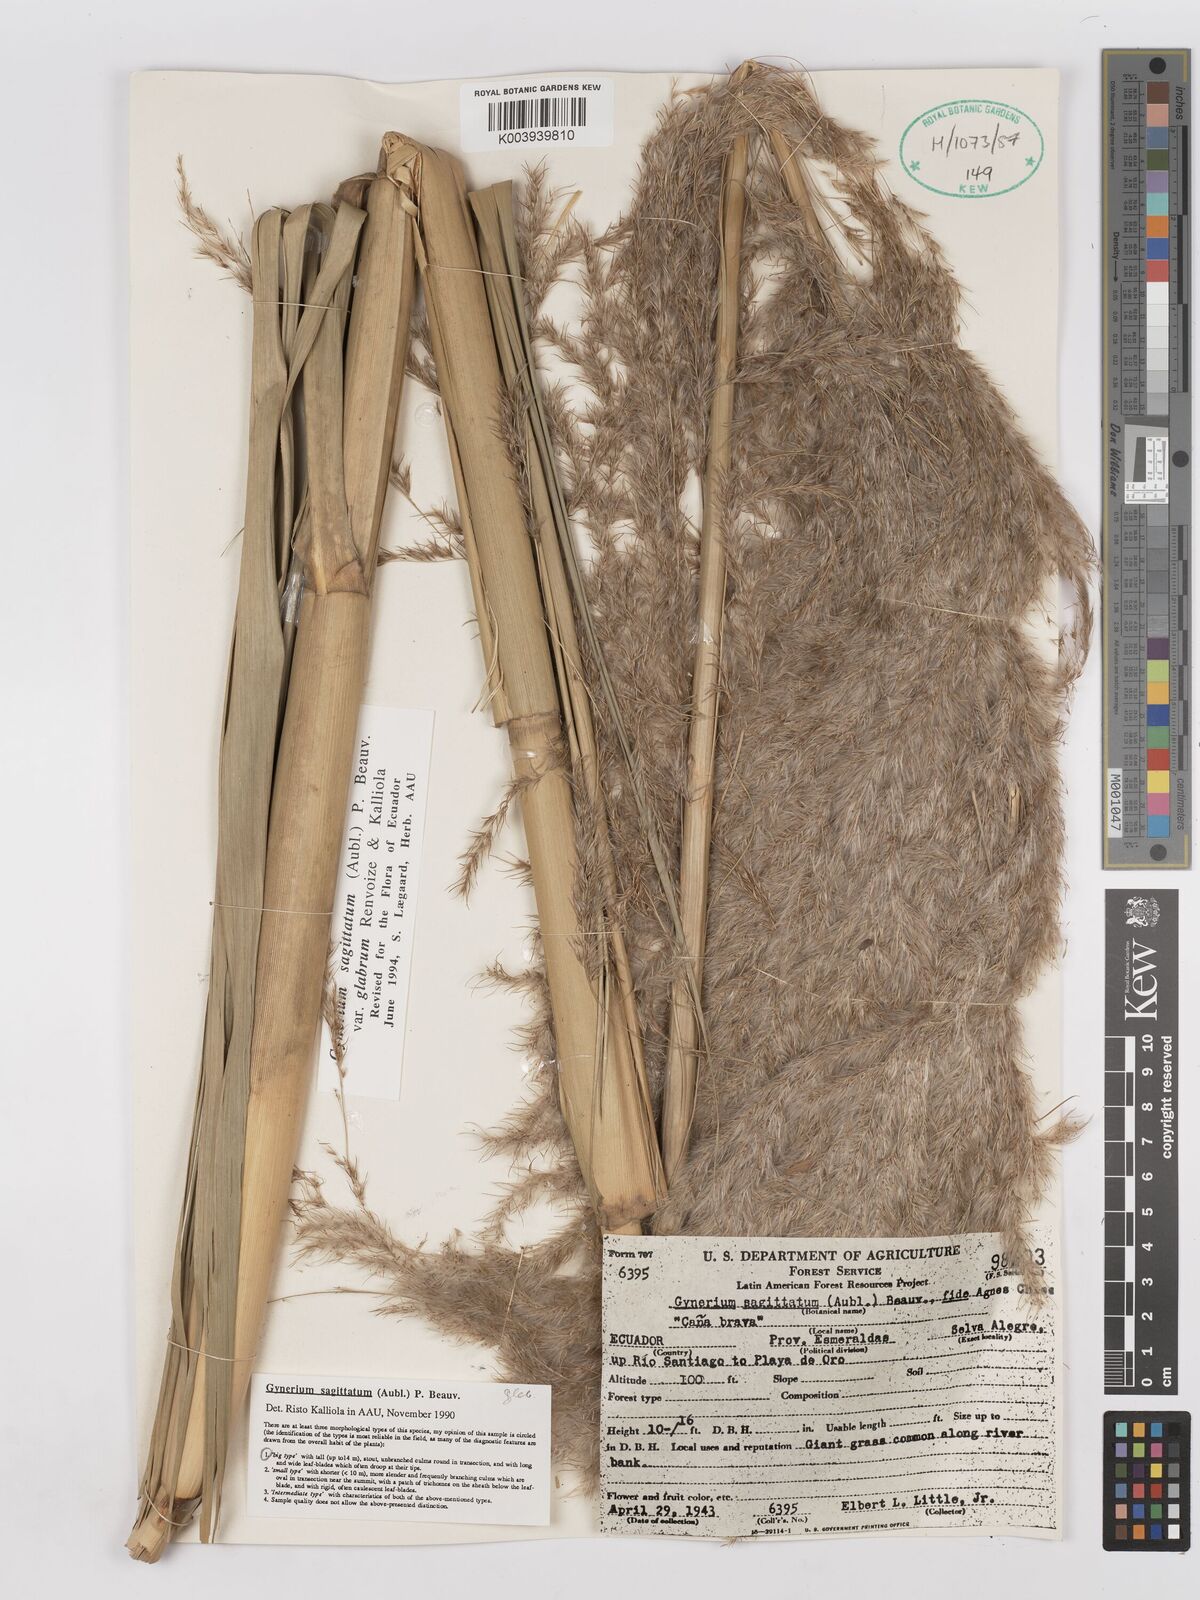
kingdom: Plantae
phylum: Tracheophyta
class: Liliopsida
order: Poales
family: Poaceae
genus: Gynerium
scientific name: Gynerium sagittatum
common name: Wild cane
